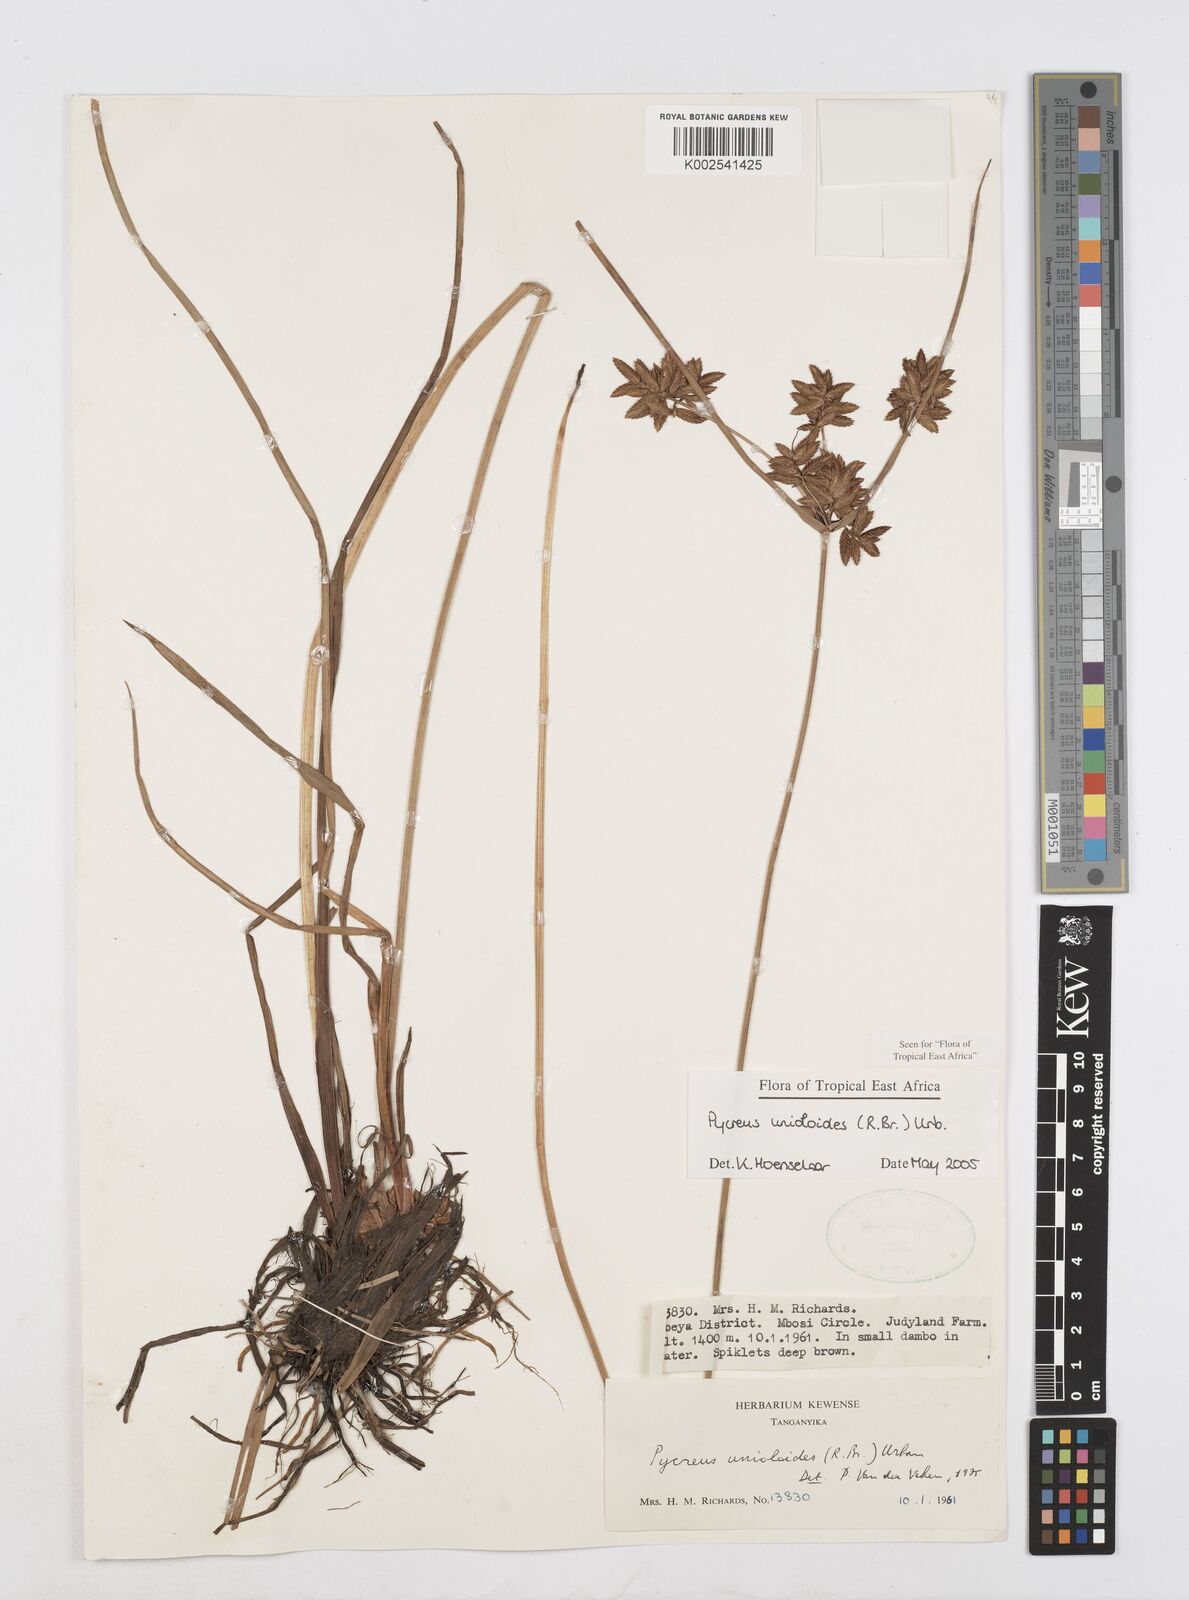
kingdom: Plantae
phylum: Tracheophyta
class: Liliopsida
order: Poales
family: Cyperaceae
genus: Cyperus
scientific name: Cyperus unioloides
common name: Uniola flatsedge
